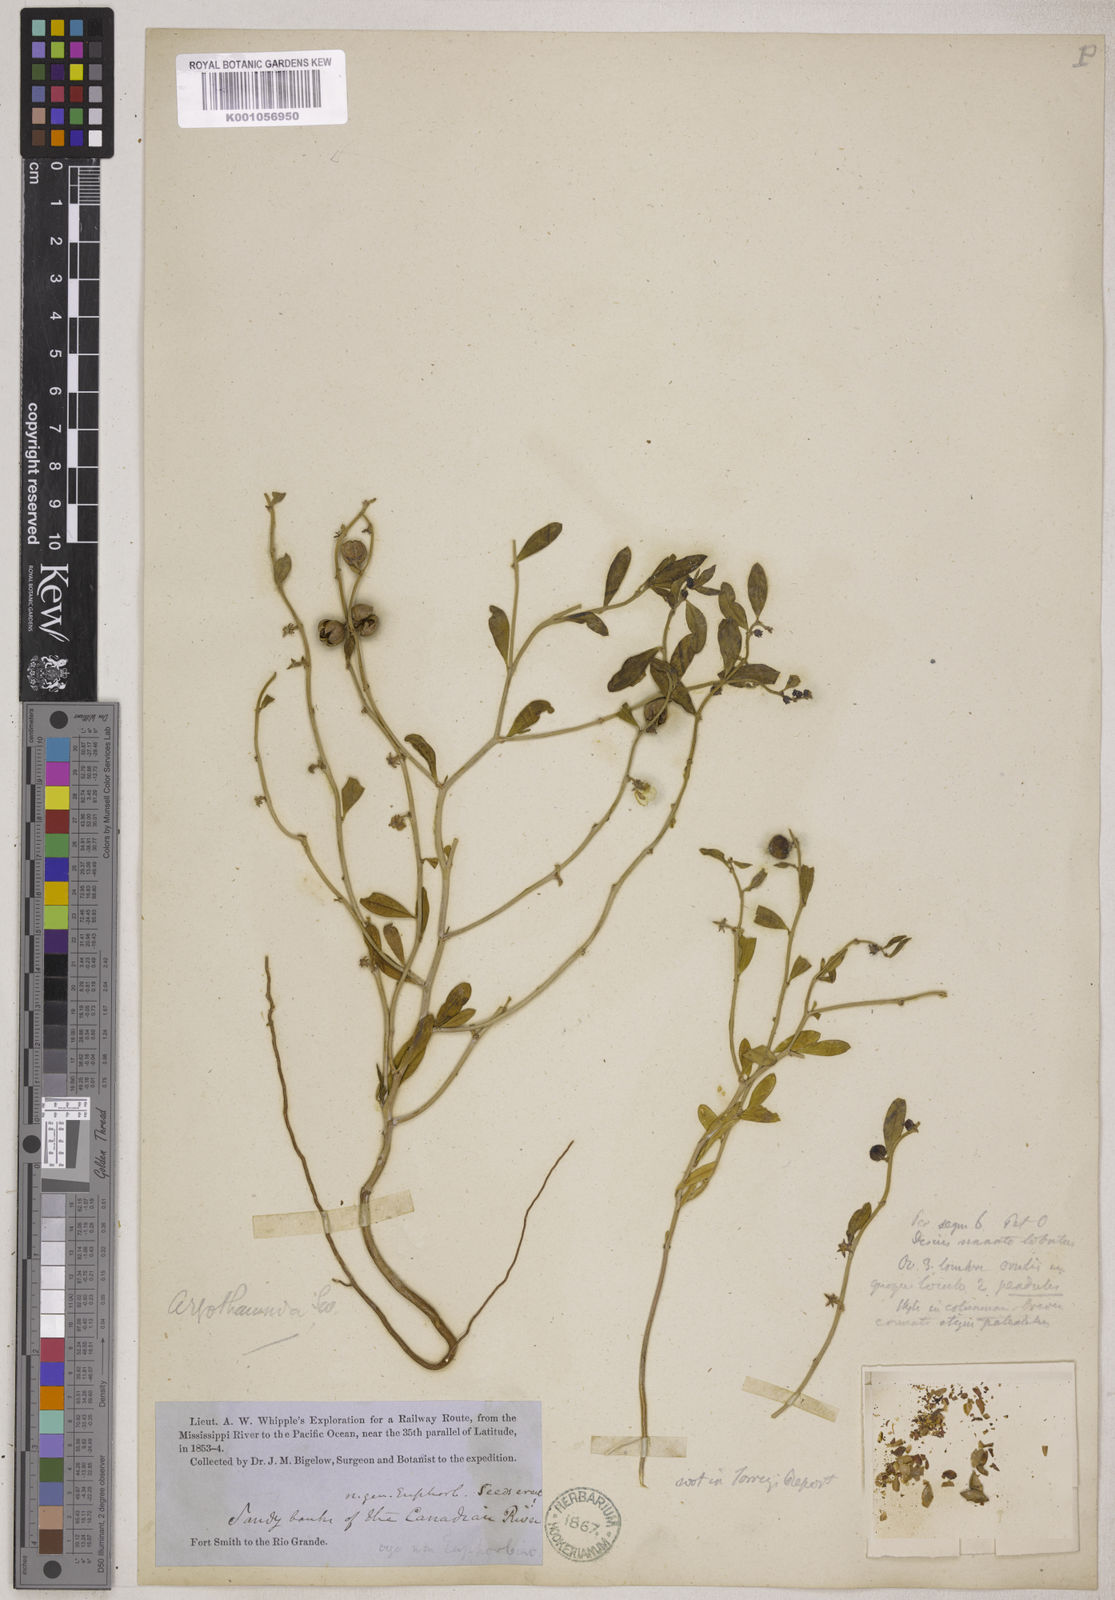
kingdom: Plantae
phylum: Tracheophyta
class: Magnoliopsida
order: Malpighiales
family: Phyllanthaceae
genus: Phyllanthus
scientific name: Phyllanthus warnockii
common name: Sand reverchonia
